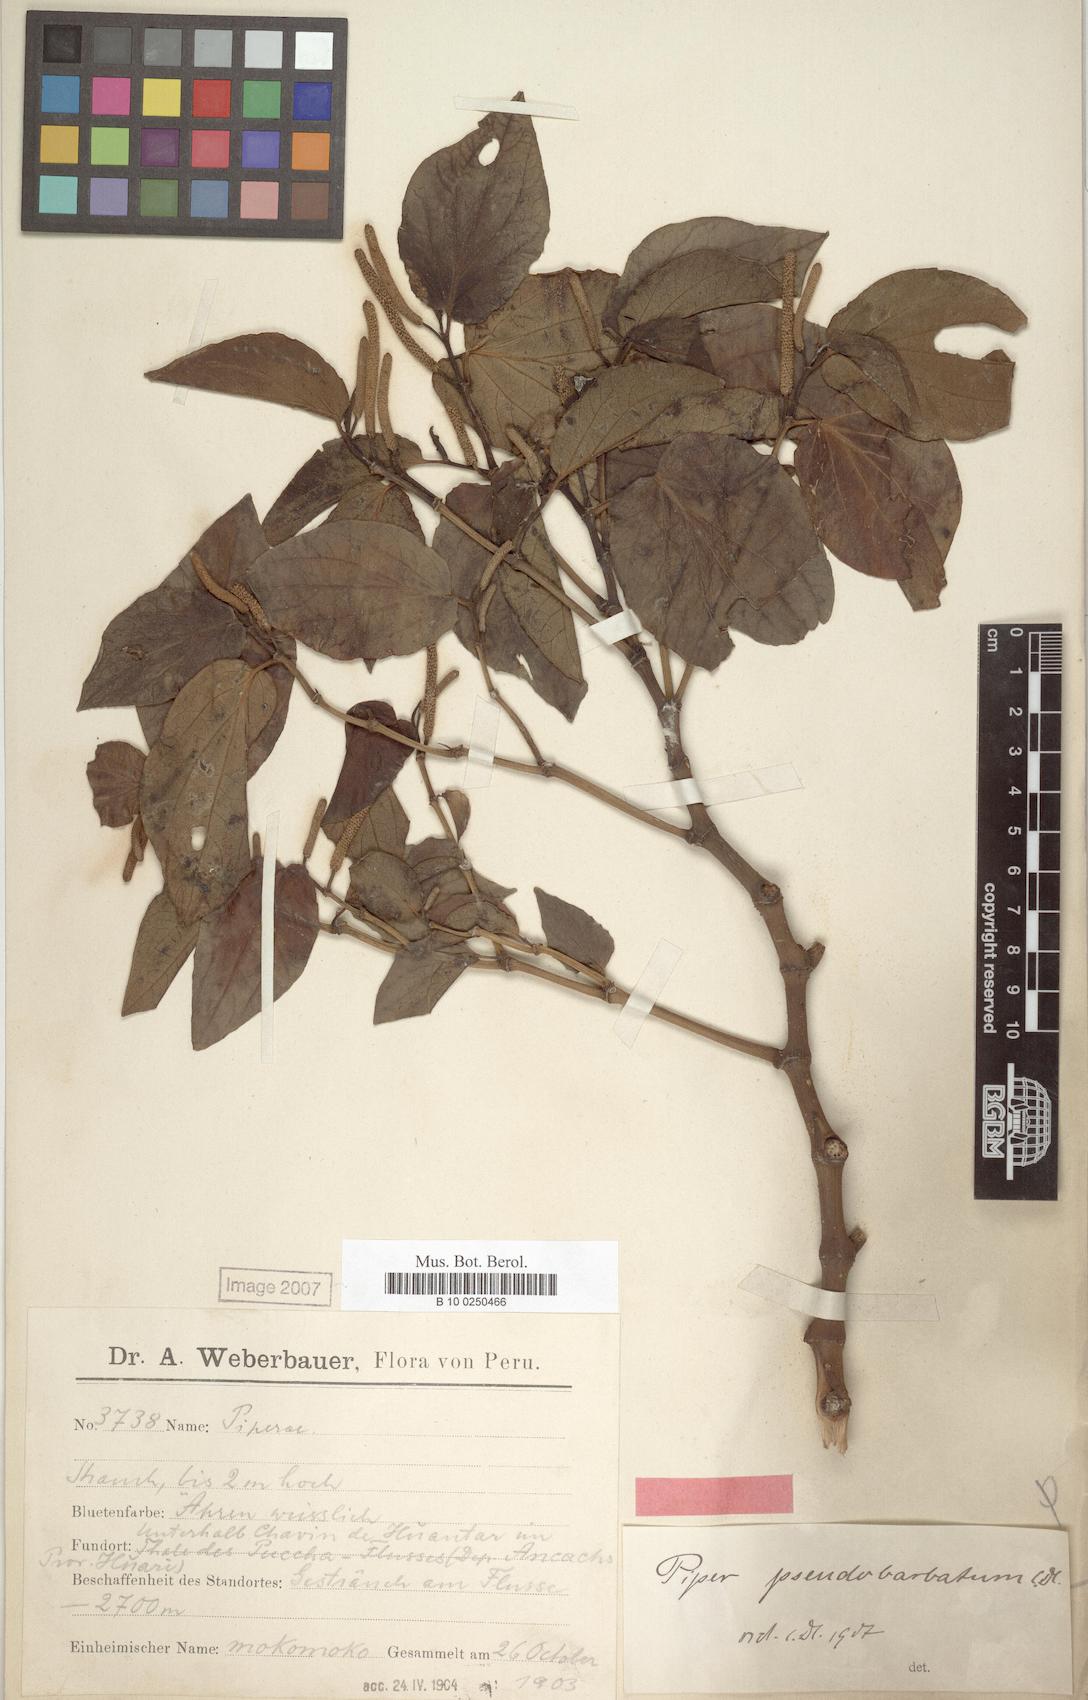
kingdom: Plantae
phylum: Tracheophyta
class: Magnoliopsida
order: Piperales
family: Piperaceae
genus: Piper
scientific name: Piper pseudobarbatum
